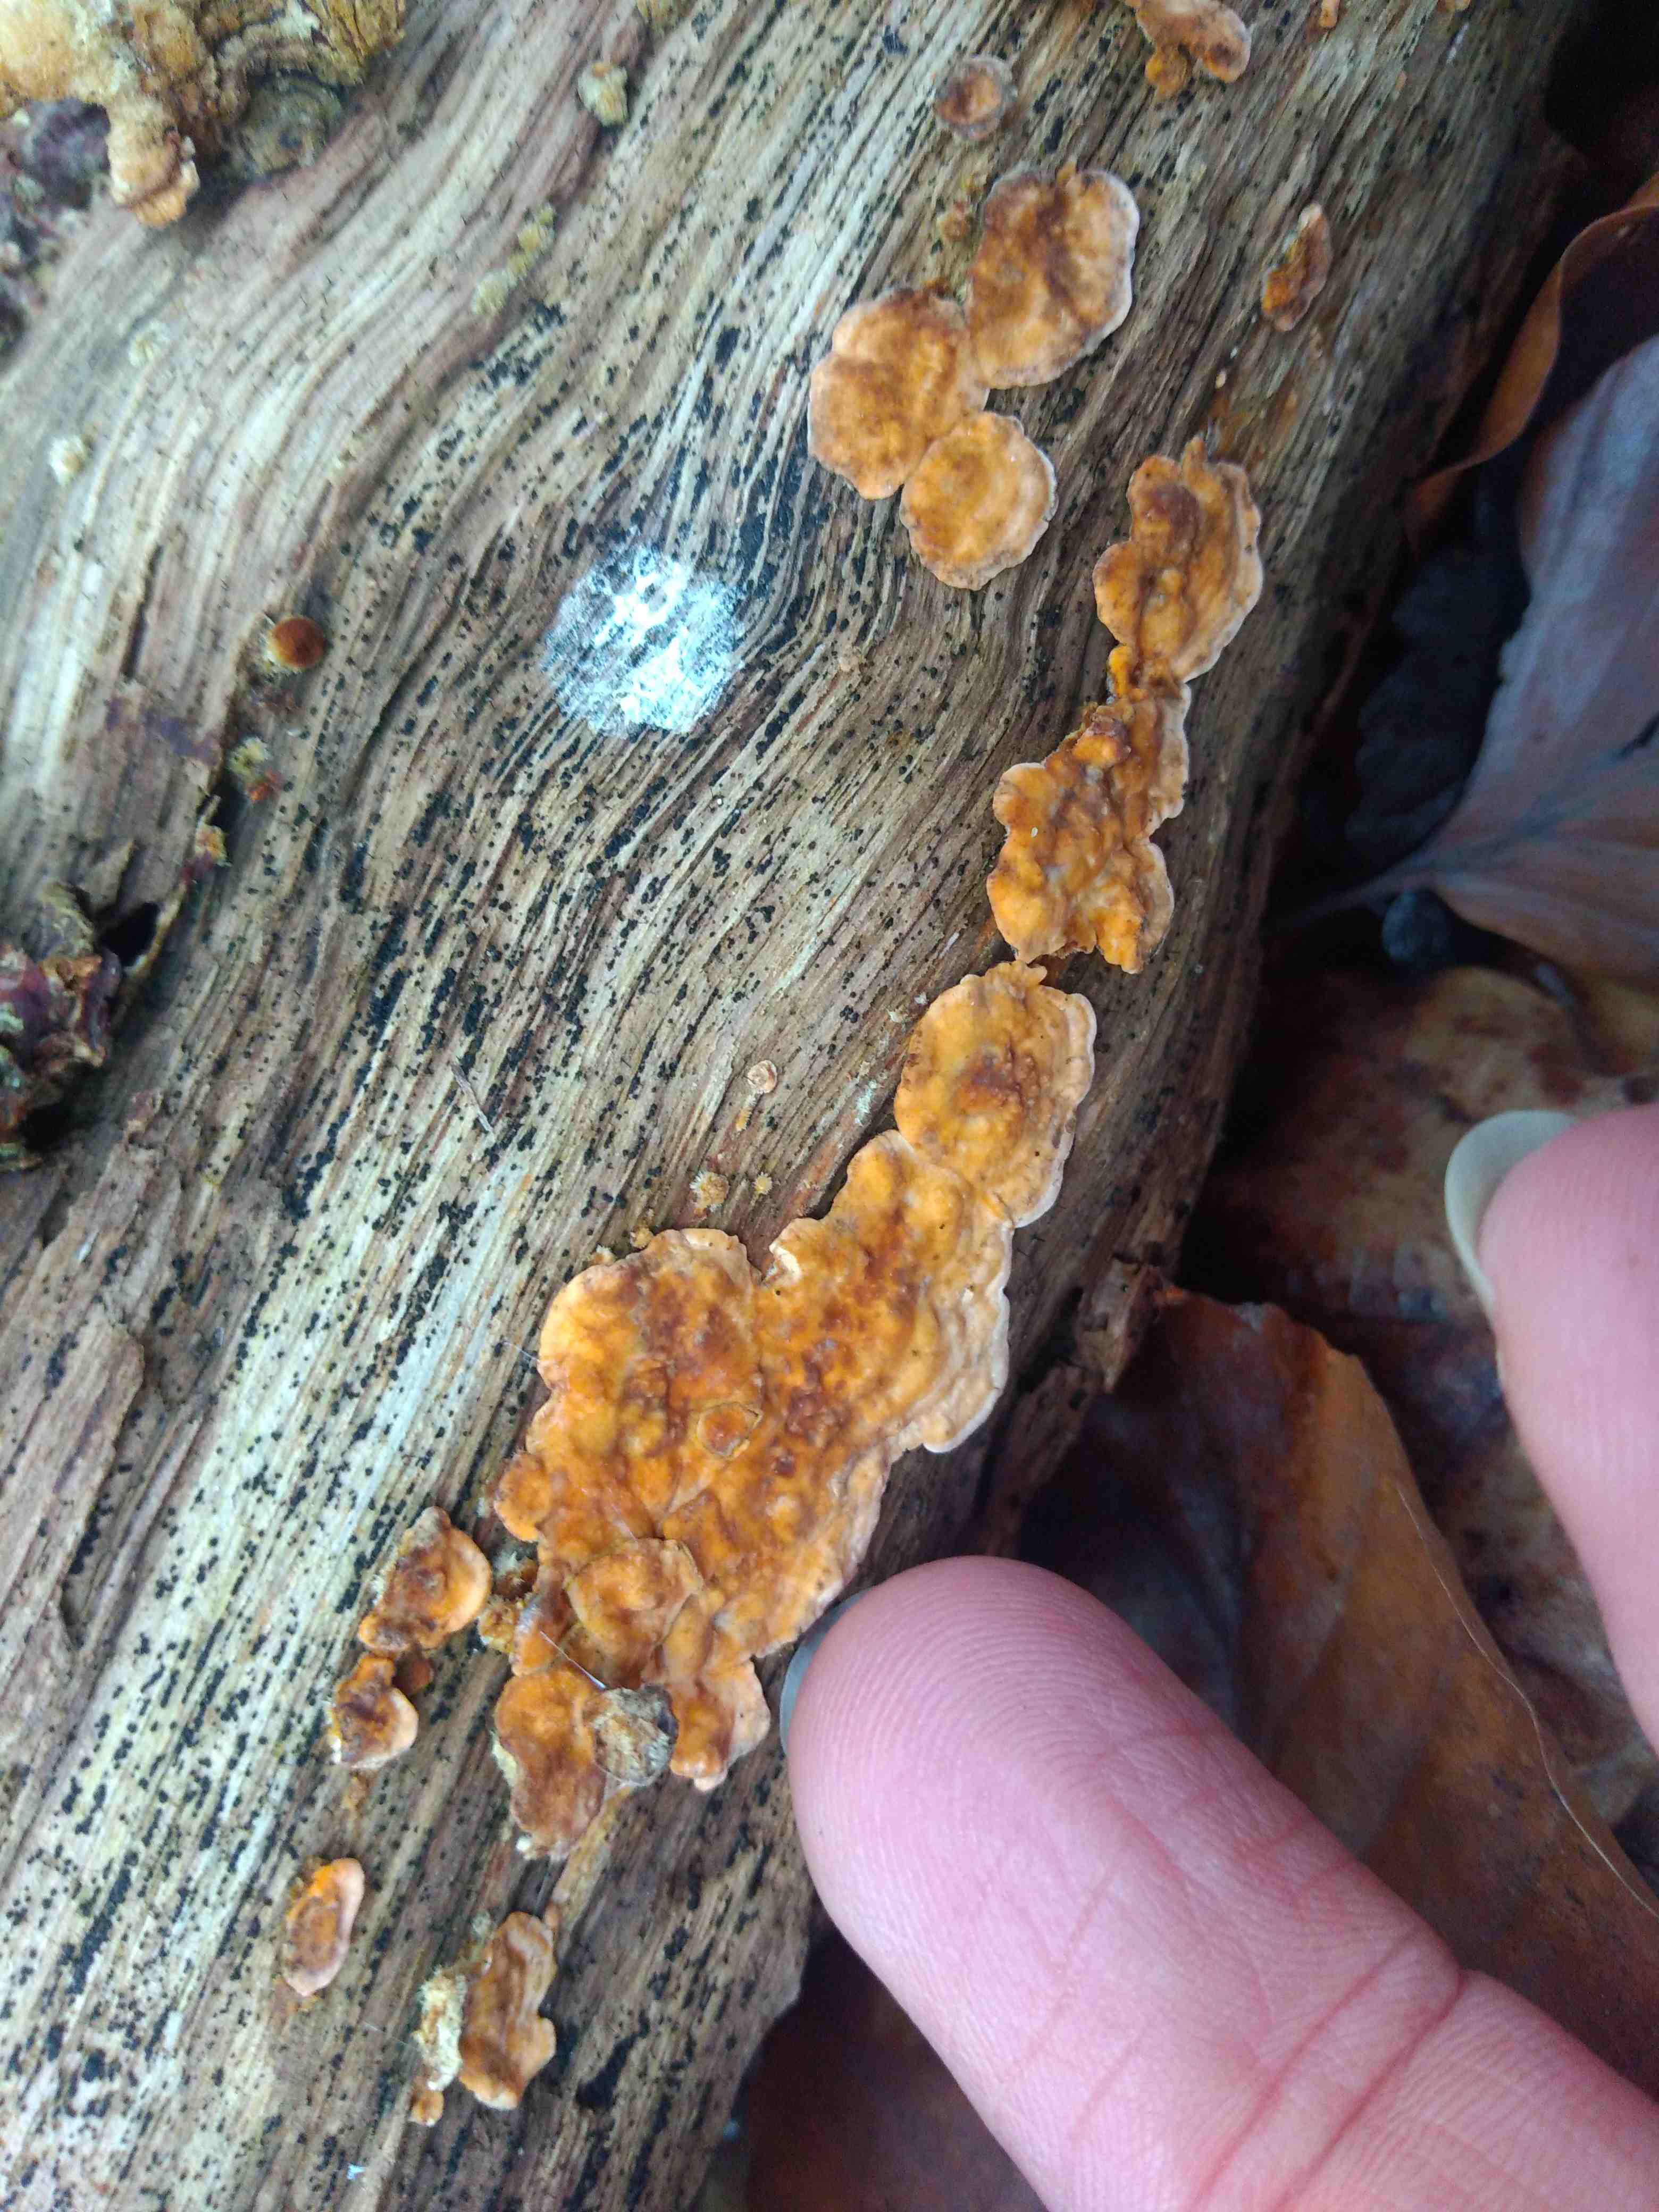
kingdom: Fungi
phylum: Basidiomycota
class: Agaricomycetes
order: Russulales
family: Stereaceae
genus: Stereum
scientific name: Stereum hirsutum
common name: håret lædersvamp
